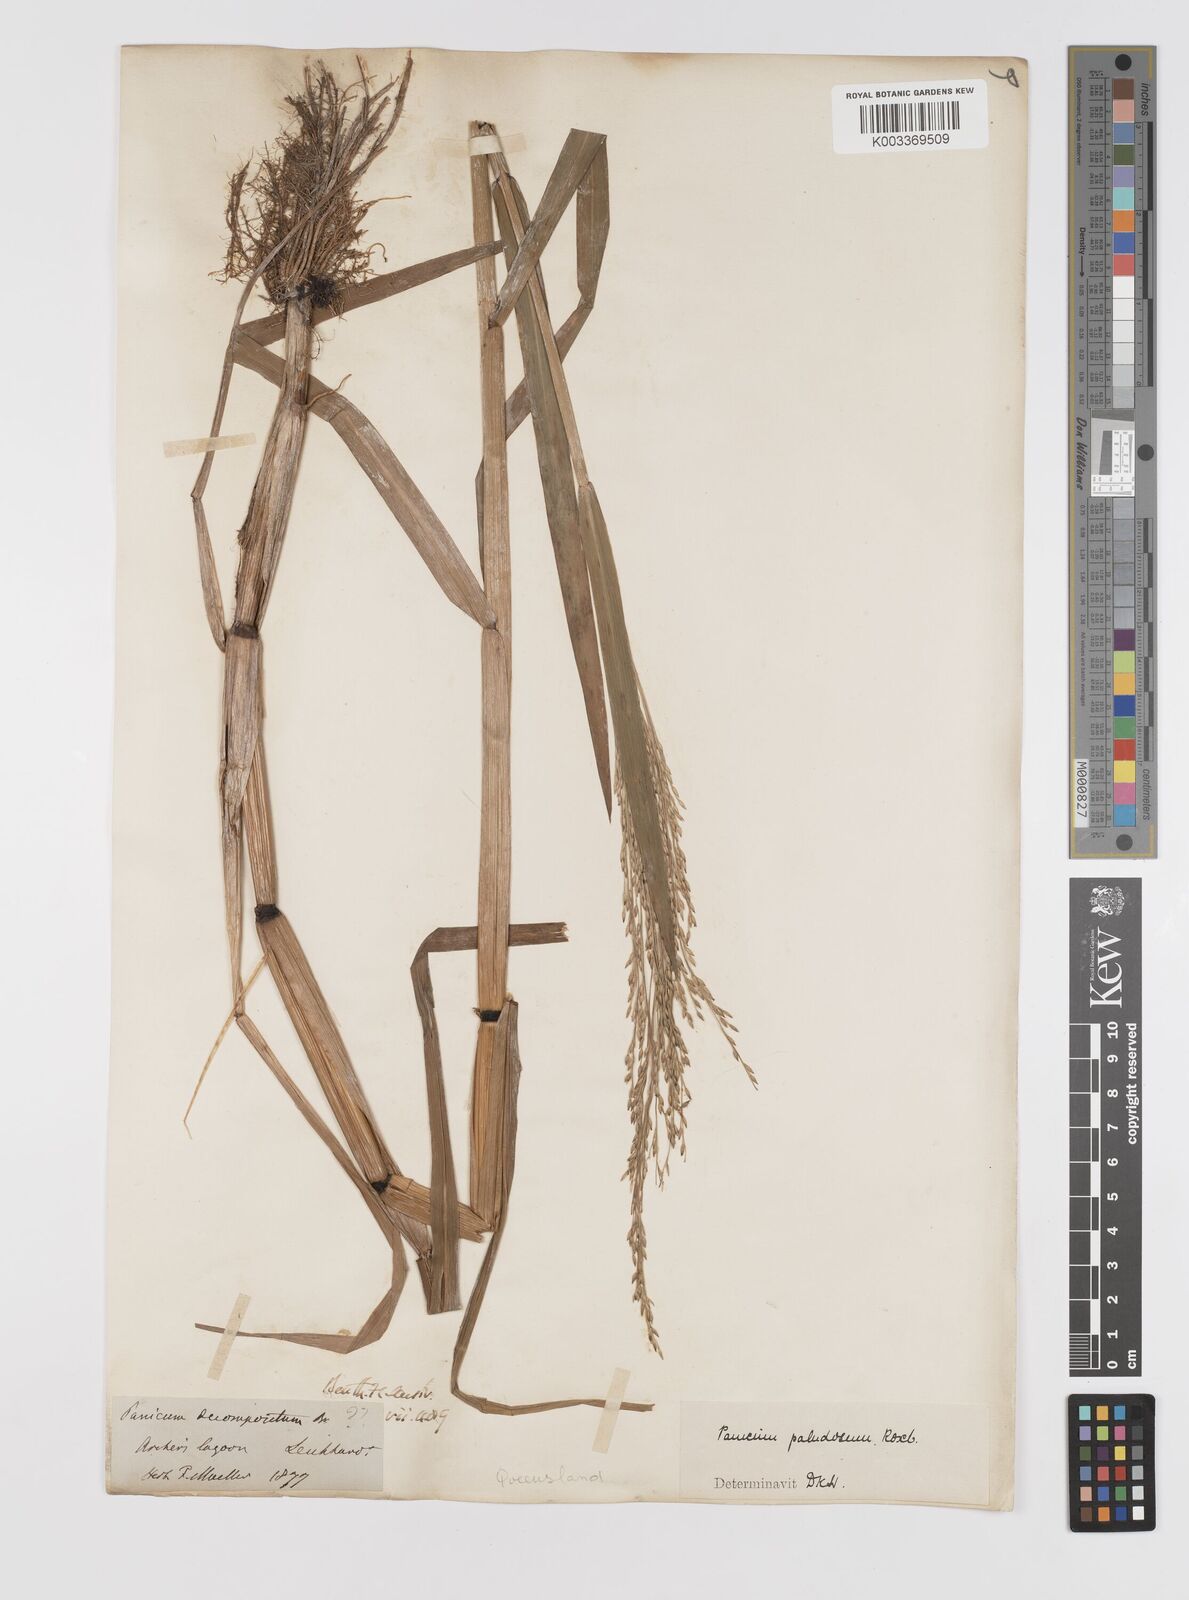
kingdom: Plantae
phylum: Tracheophyta
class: Liliopsida
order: Poales
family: Poaceae
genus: Louisiella
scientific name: Louisiella paludosa
